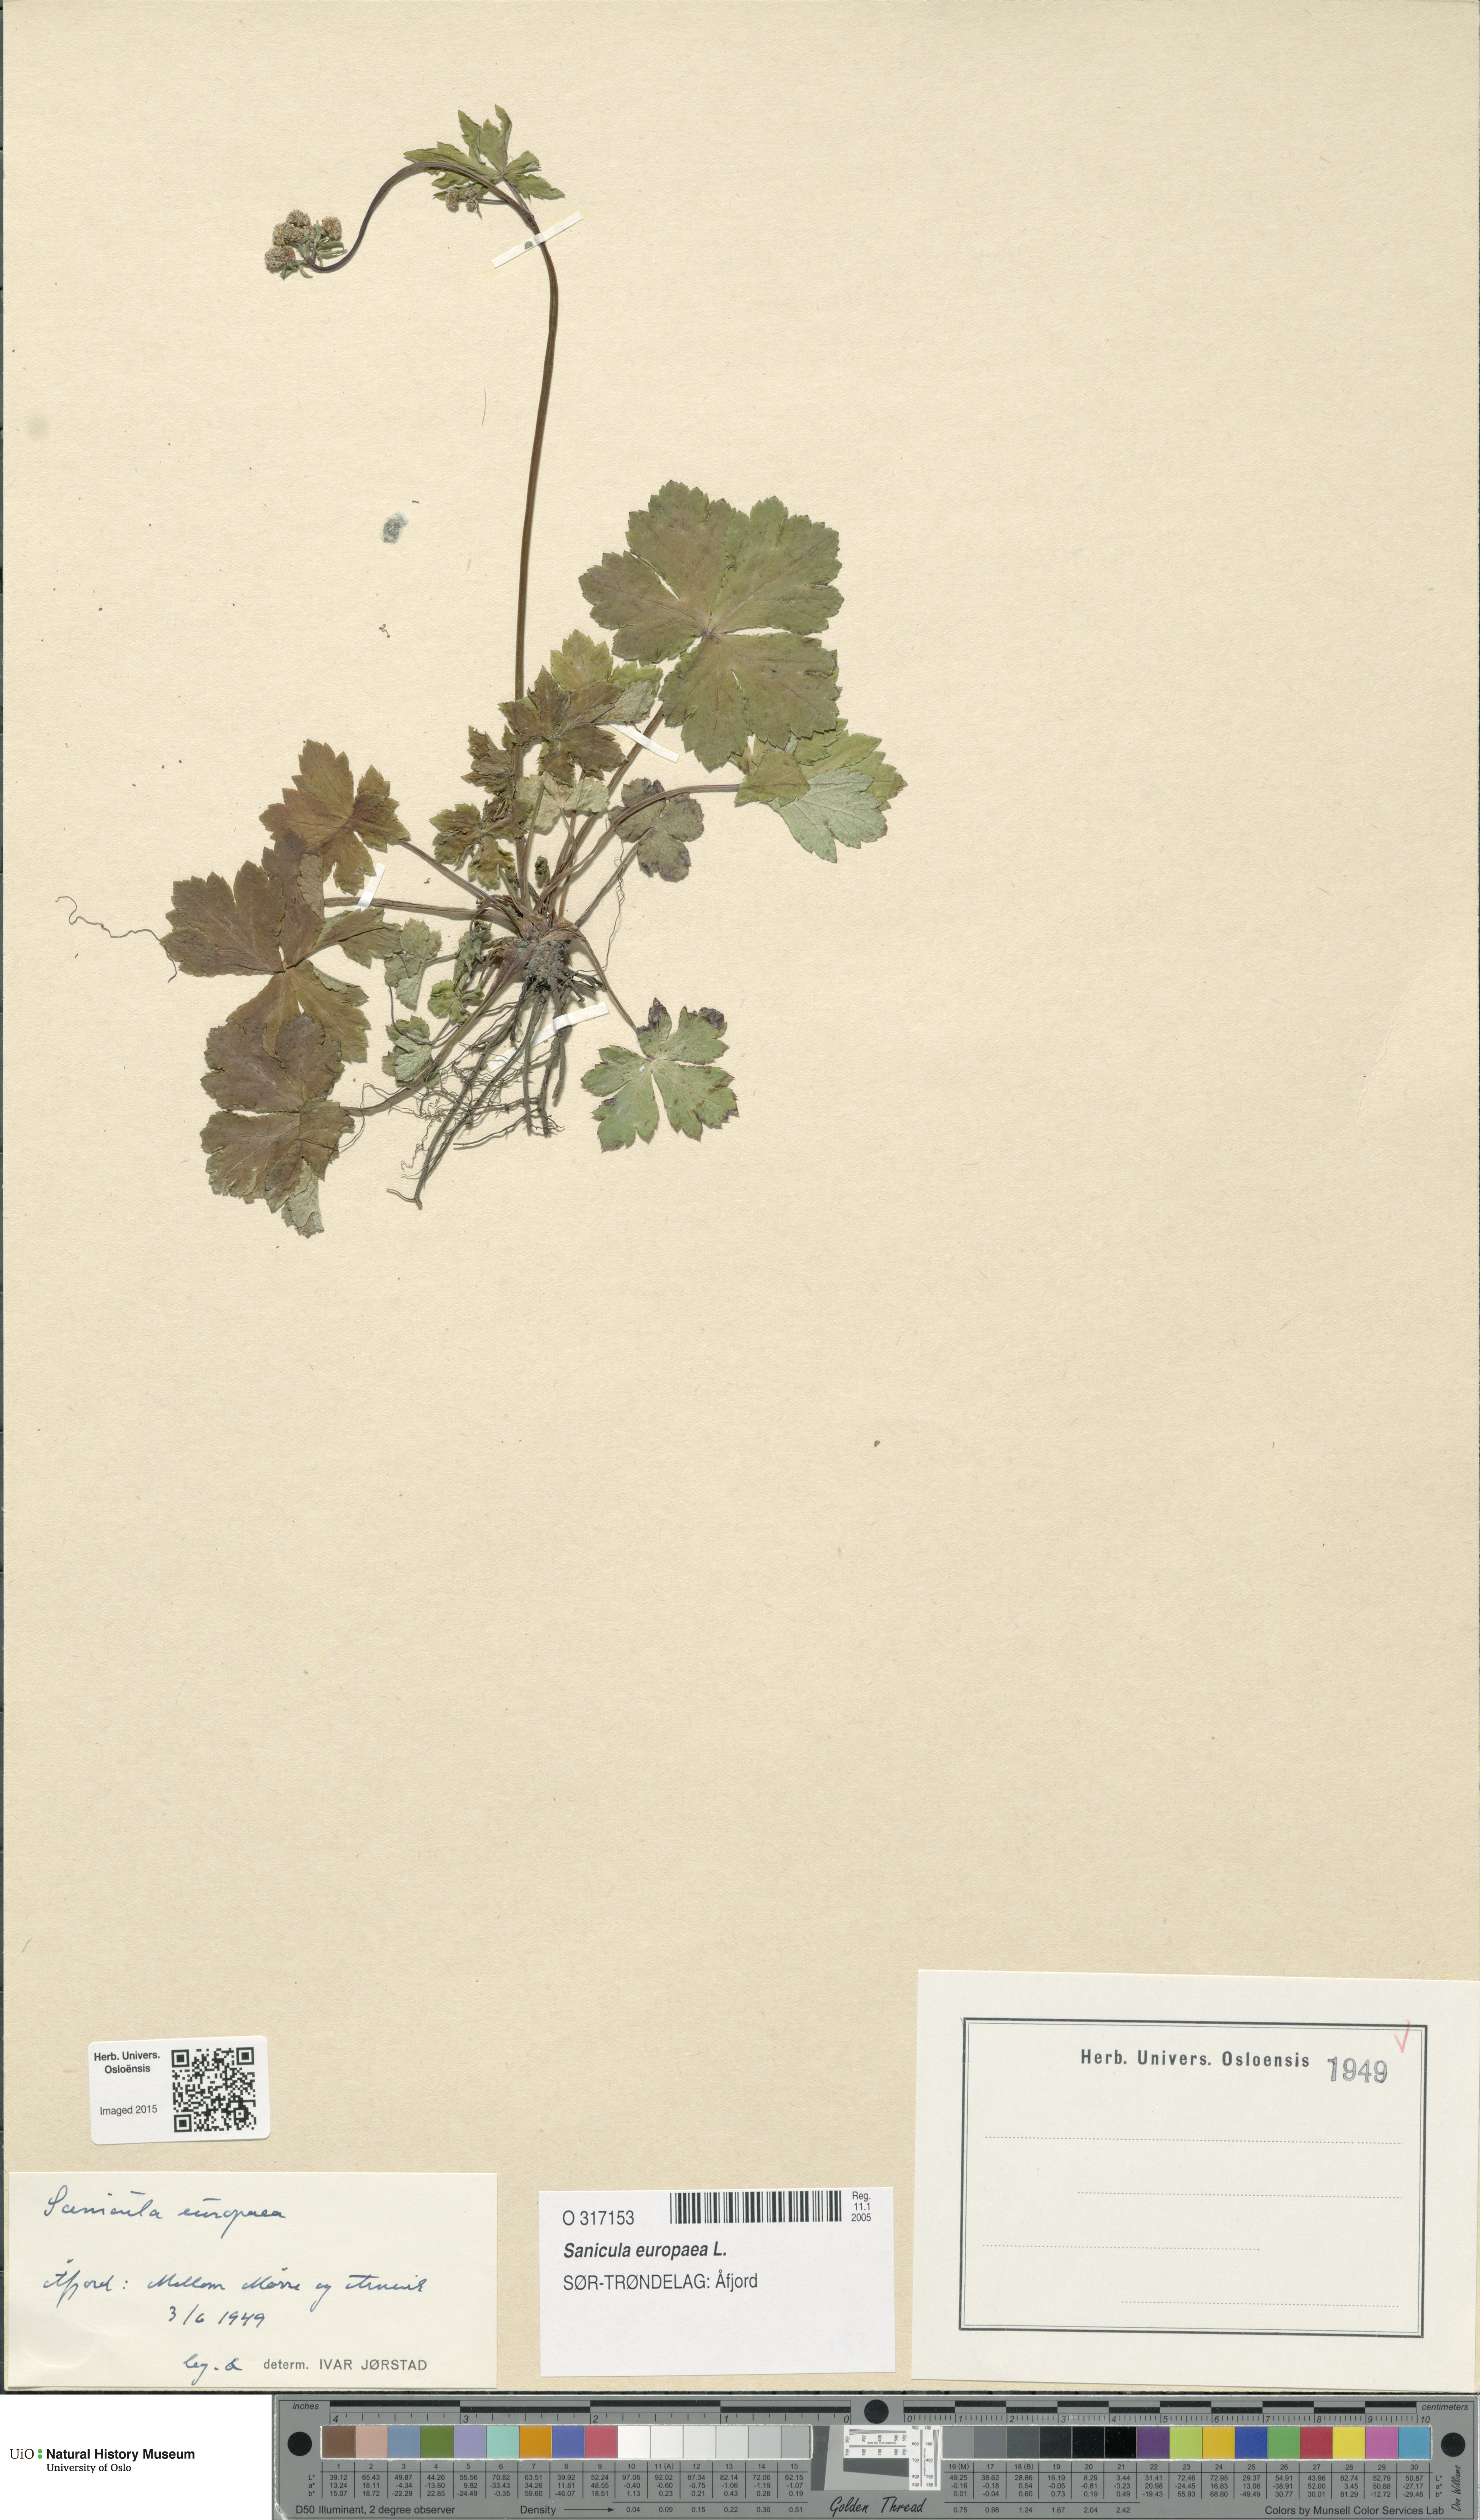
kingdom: Plantae
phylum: Tracheophyta
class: Magnoliopsida
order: Apiales
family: Apiaceae
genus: Sanicula
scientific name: Sanicula europaea
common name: Sanicle
